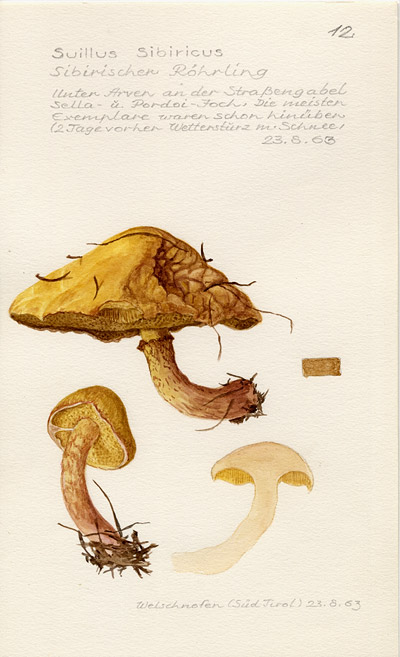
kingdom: Fungi
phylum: Basidiomycota
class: Agaricomycetes
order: Boletales
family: Suillaceae
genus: Suillus
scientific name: Suillus americanus
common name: Chicken fat mushroom
